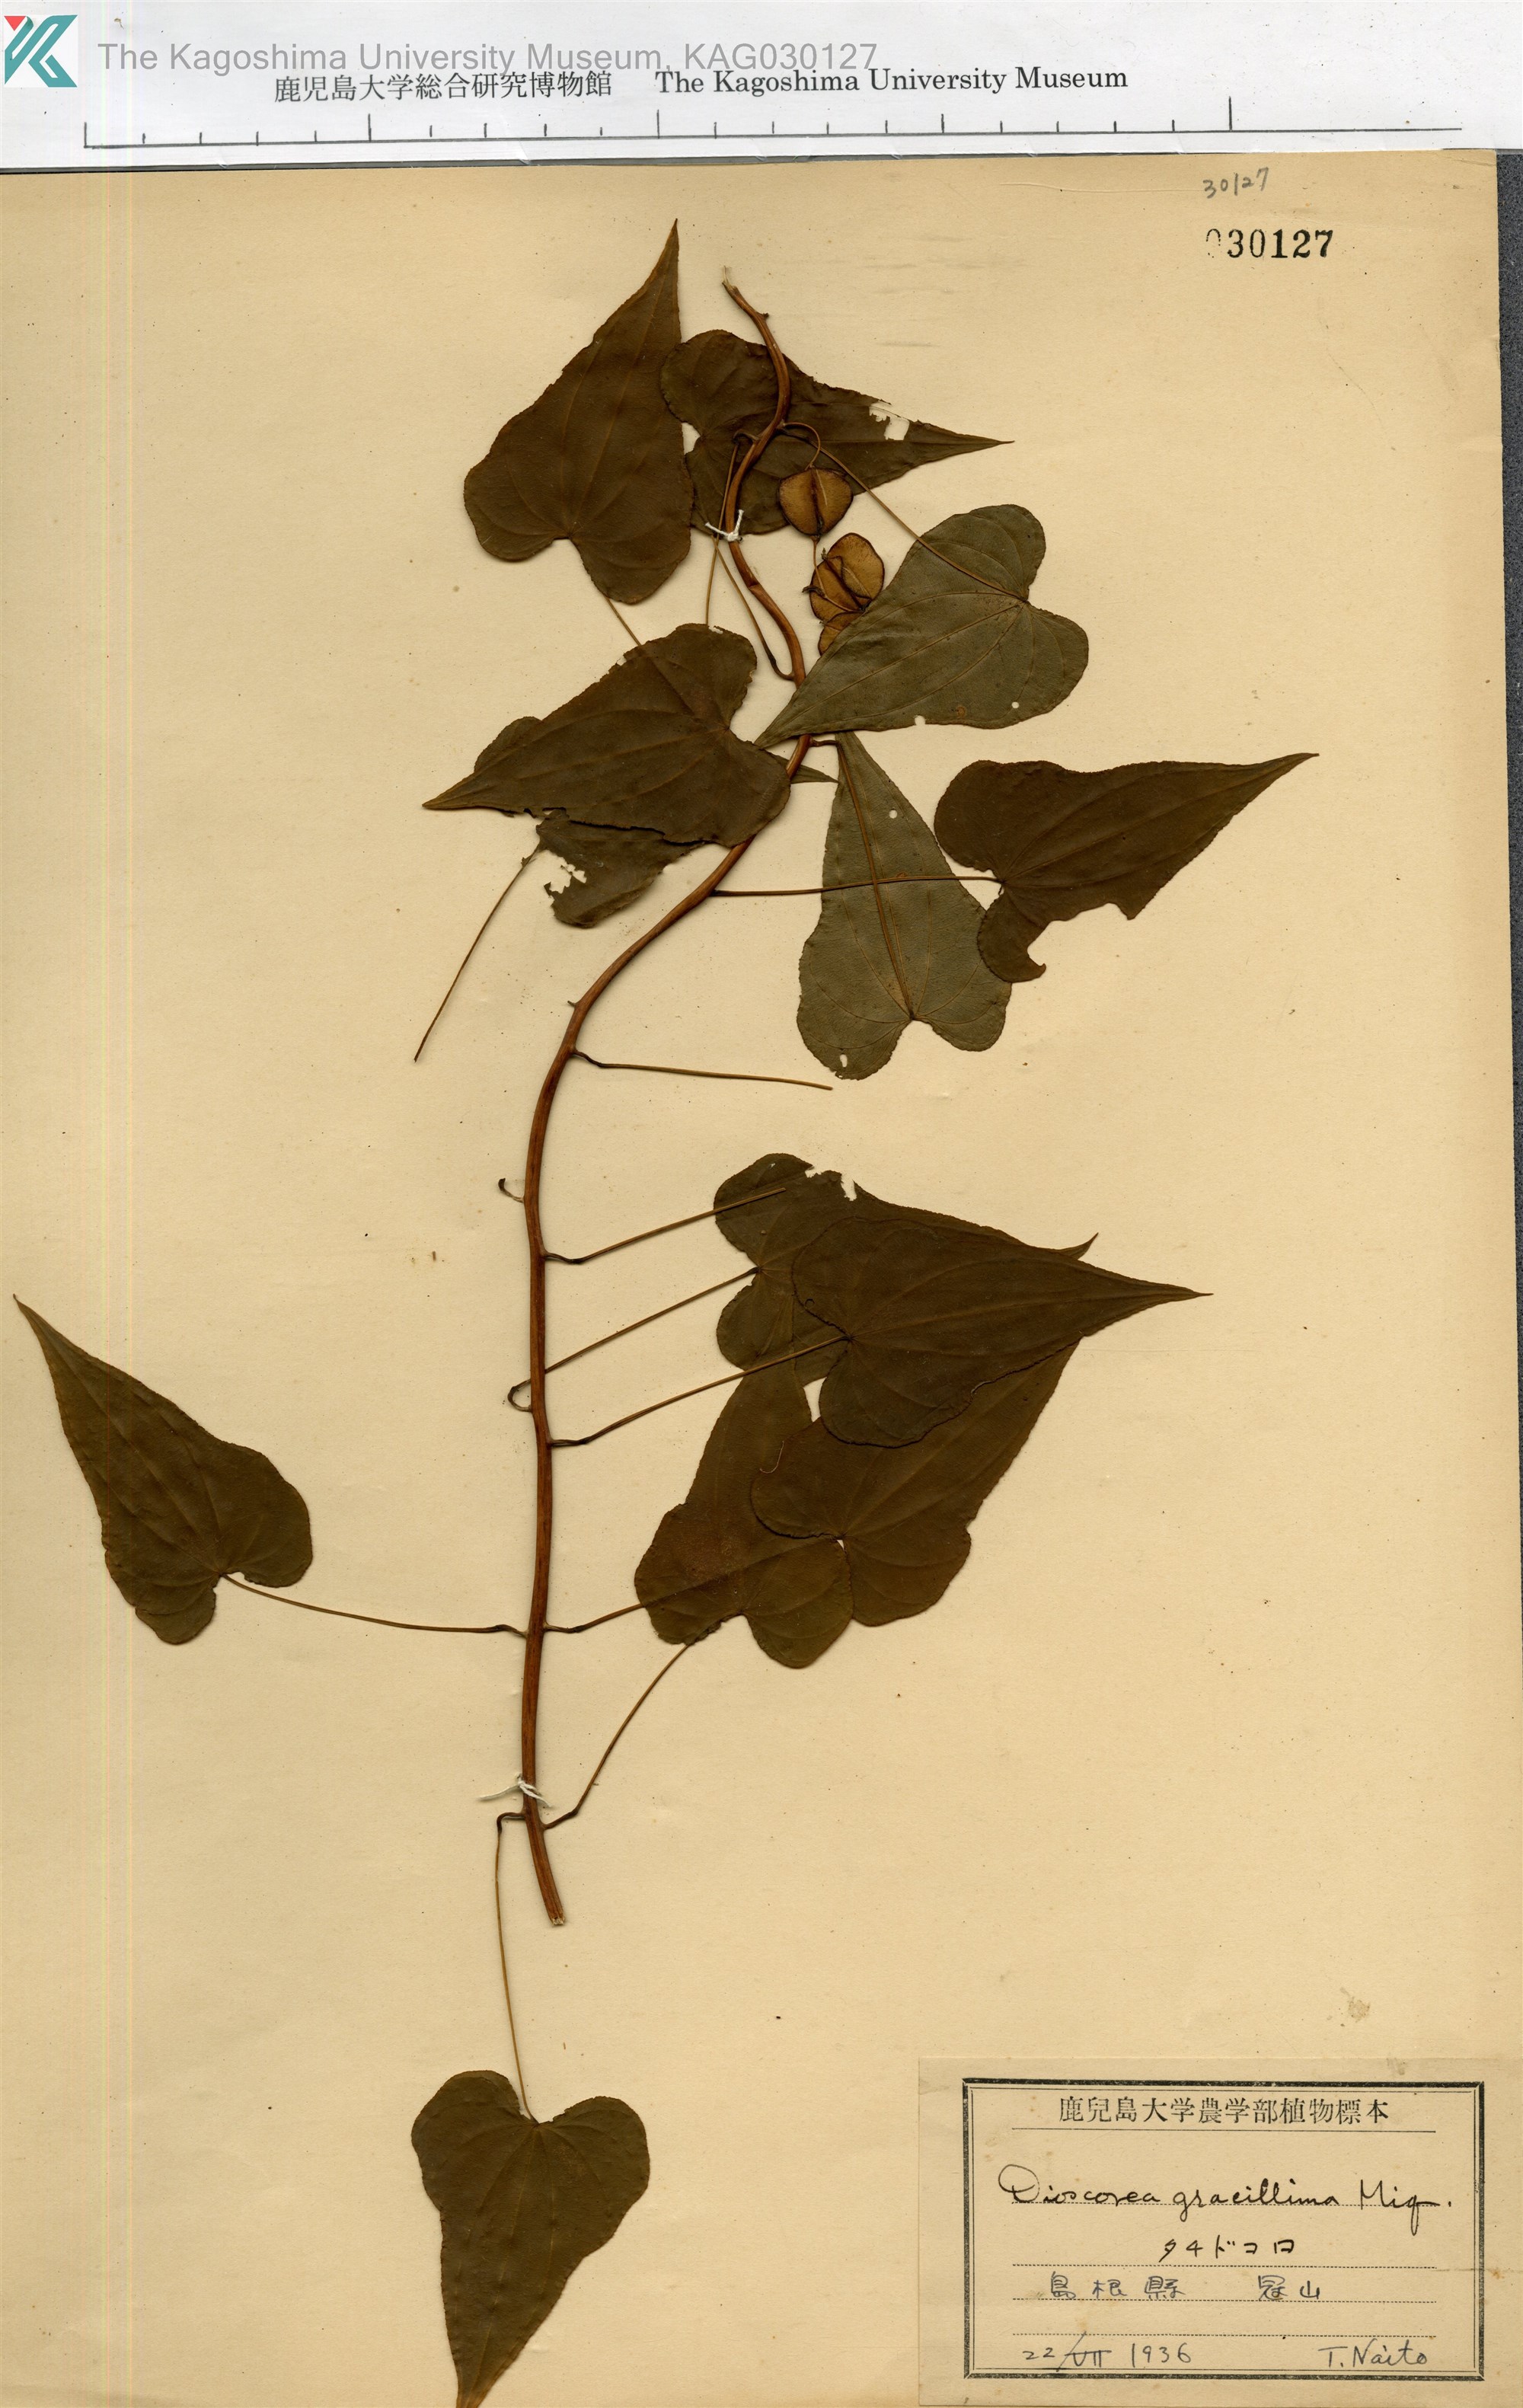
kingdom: Plantae
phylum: Tracheophyta
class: Liliopsida
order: Dioscoreales
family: Dioscoreaceae
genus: Dioscorea
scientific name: Dioscorea gracillima
